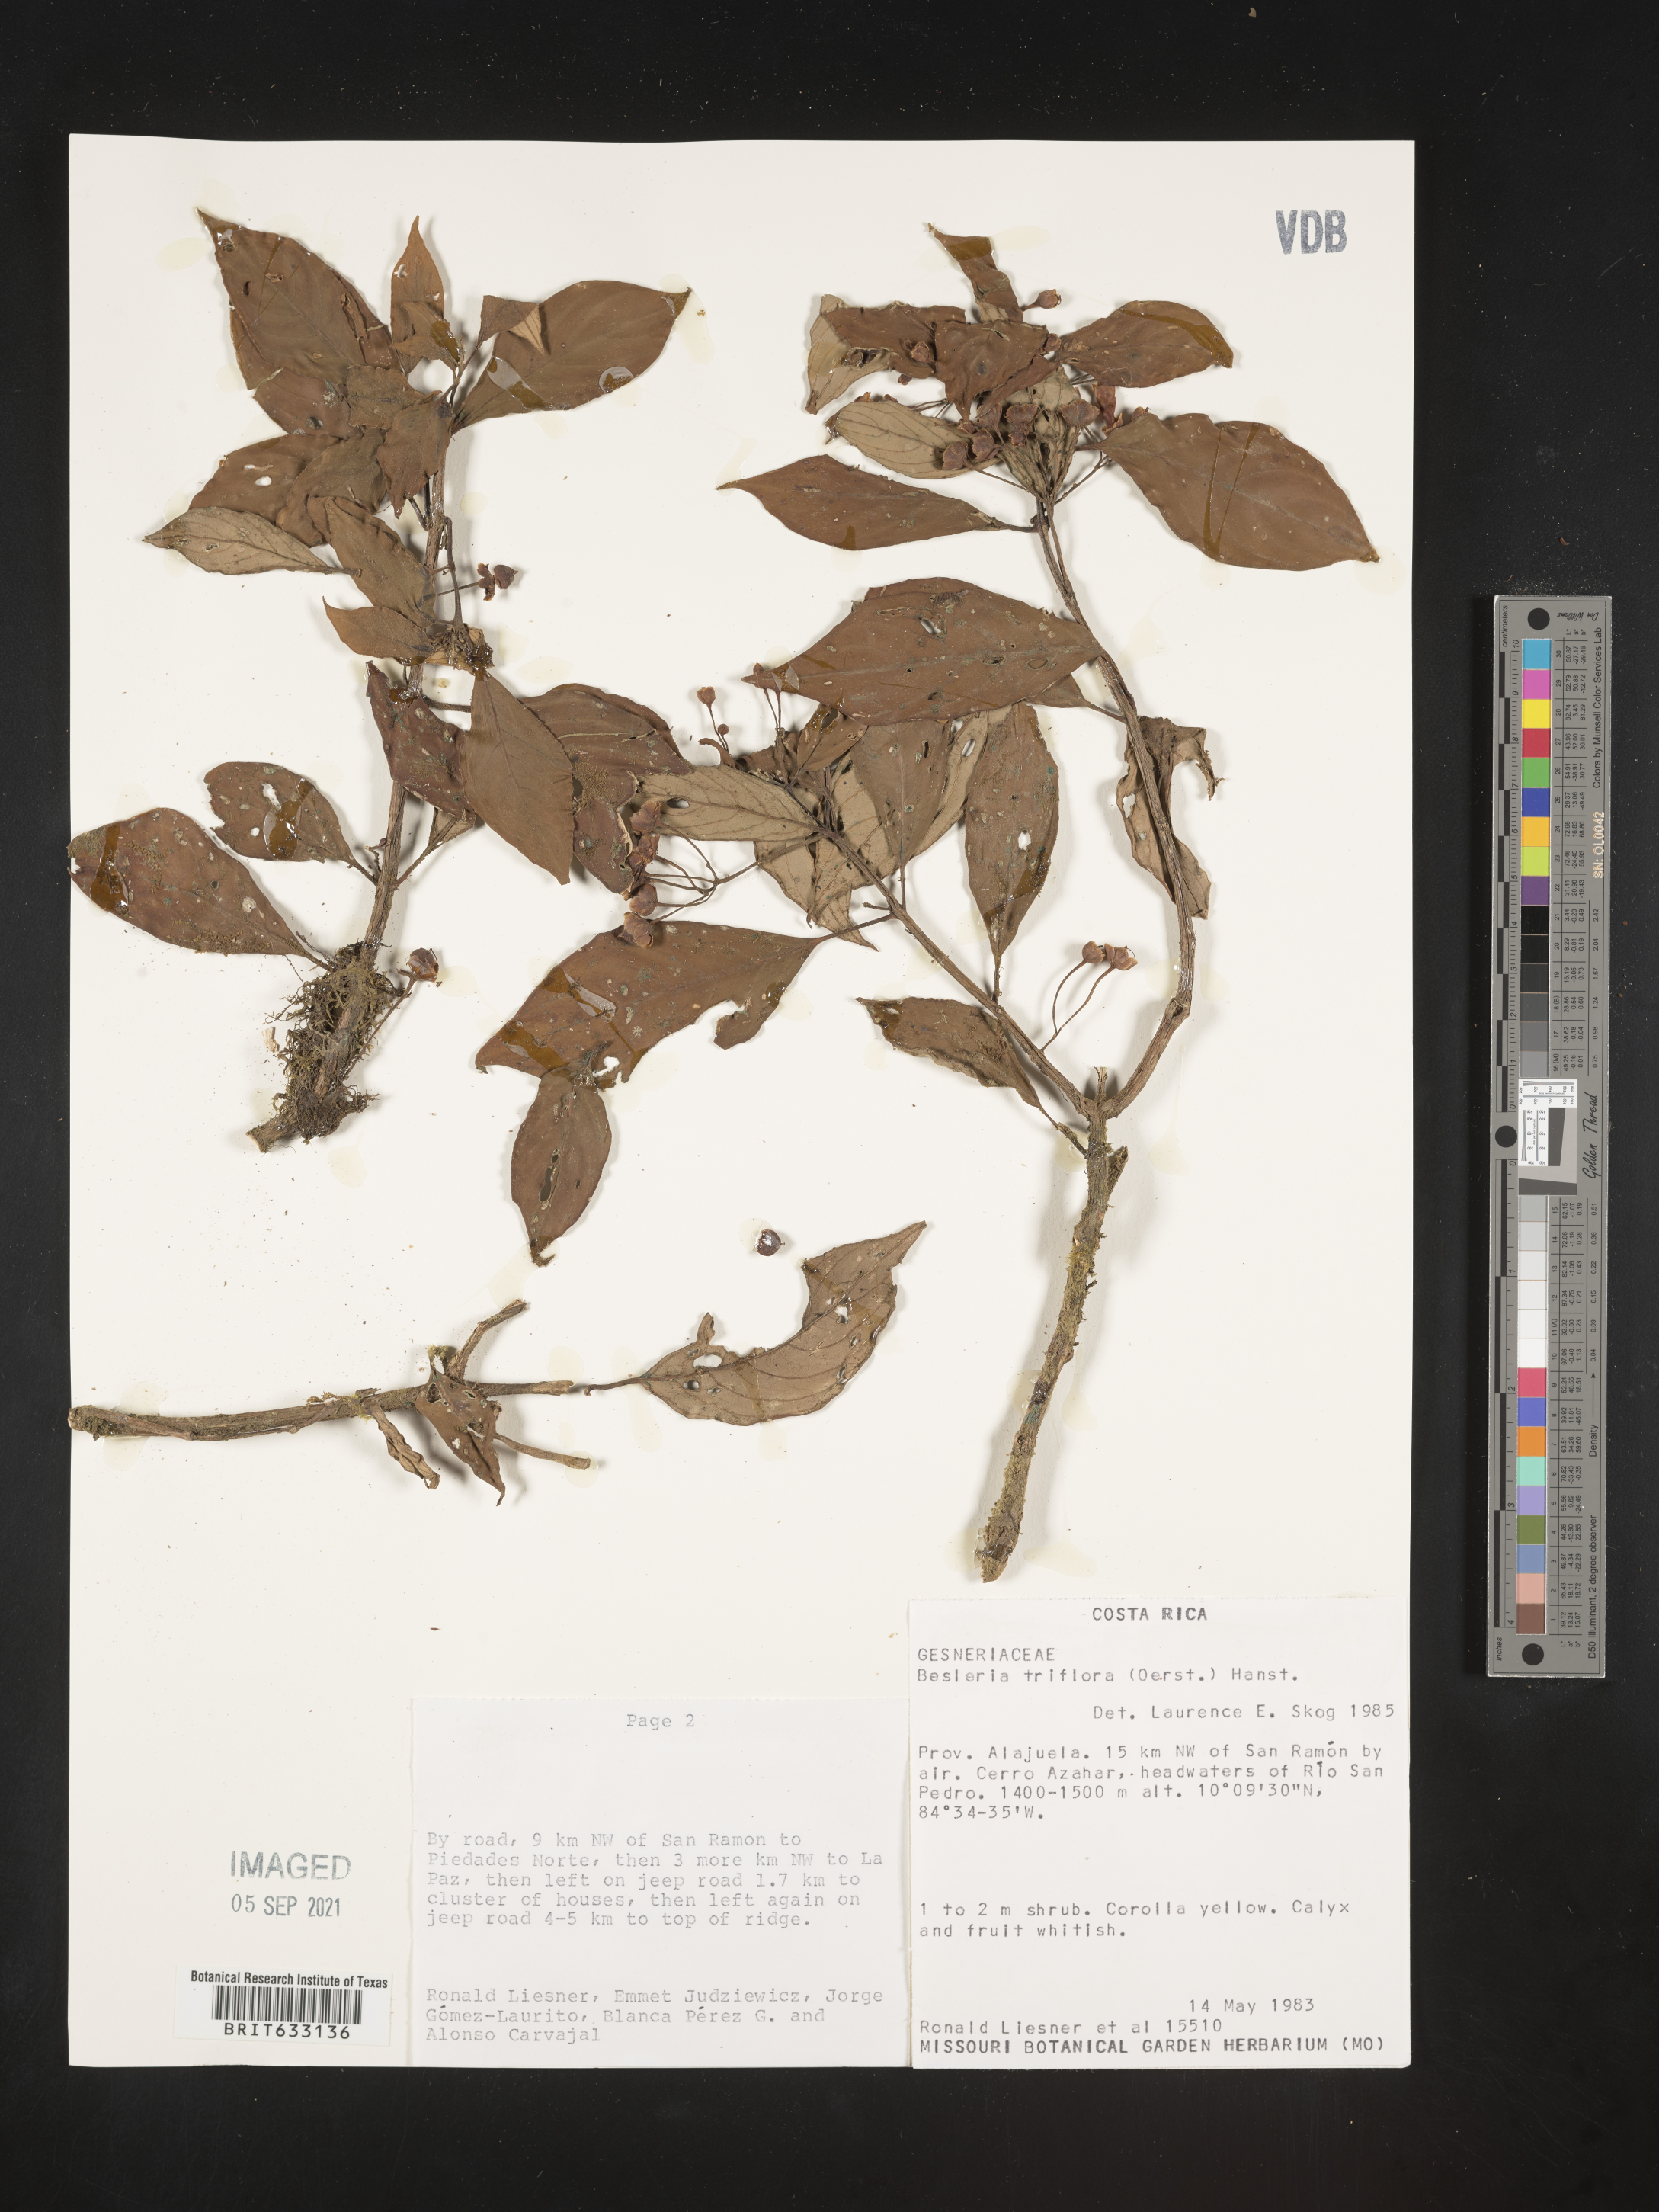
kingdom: Plantae
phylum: Tracheophyta
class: Magnoliopsida
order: Lamiales
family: Gesneriaceae
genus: Besleria
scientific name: Besleria
